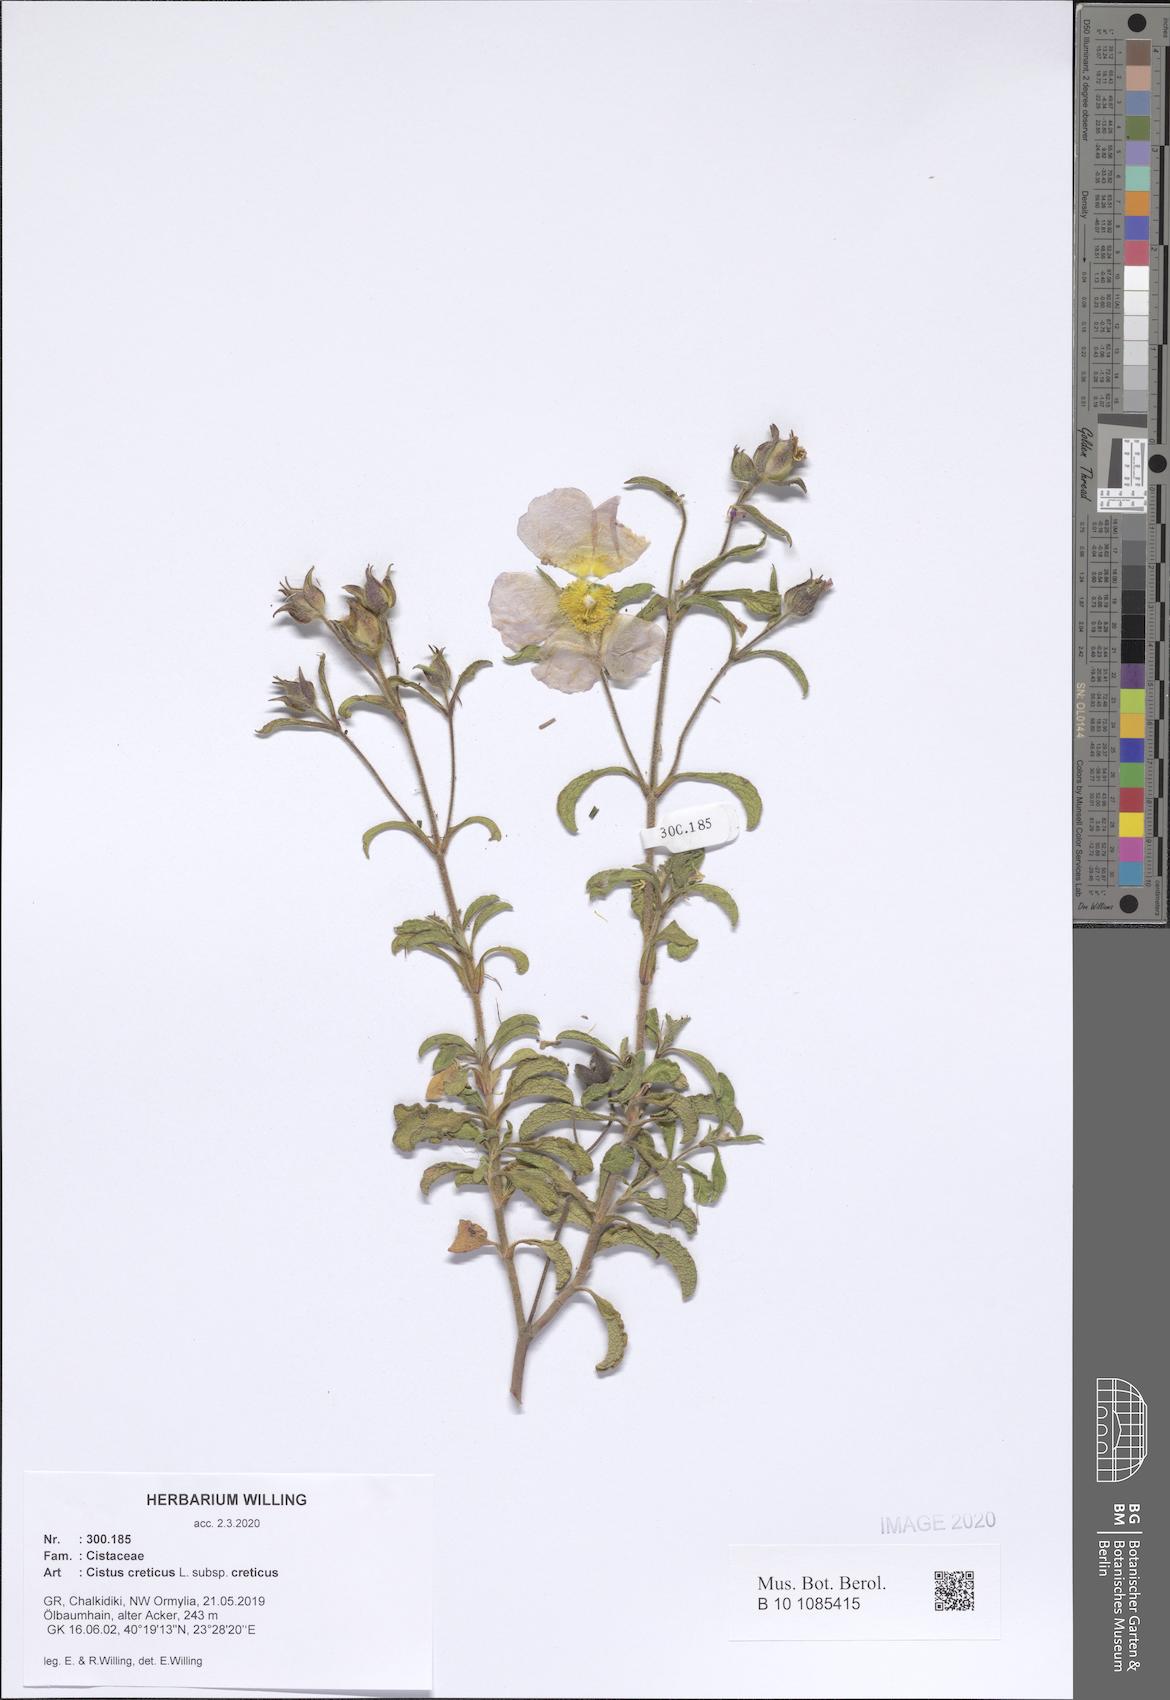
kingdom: Plantae
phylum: Tracheophyta
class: Magnoliopsida
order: Malvales
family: Cistaceae
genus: Cistus
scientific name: Cistus creticus
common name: Cretan rockrose
